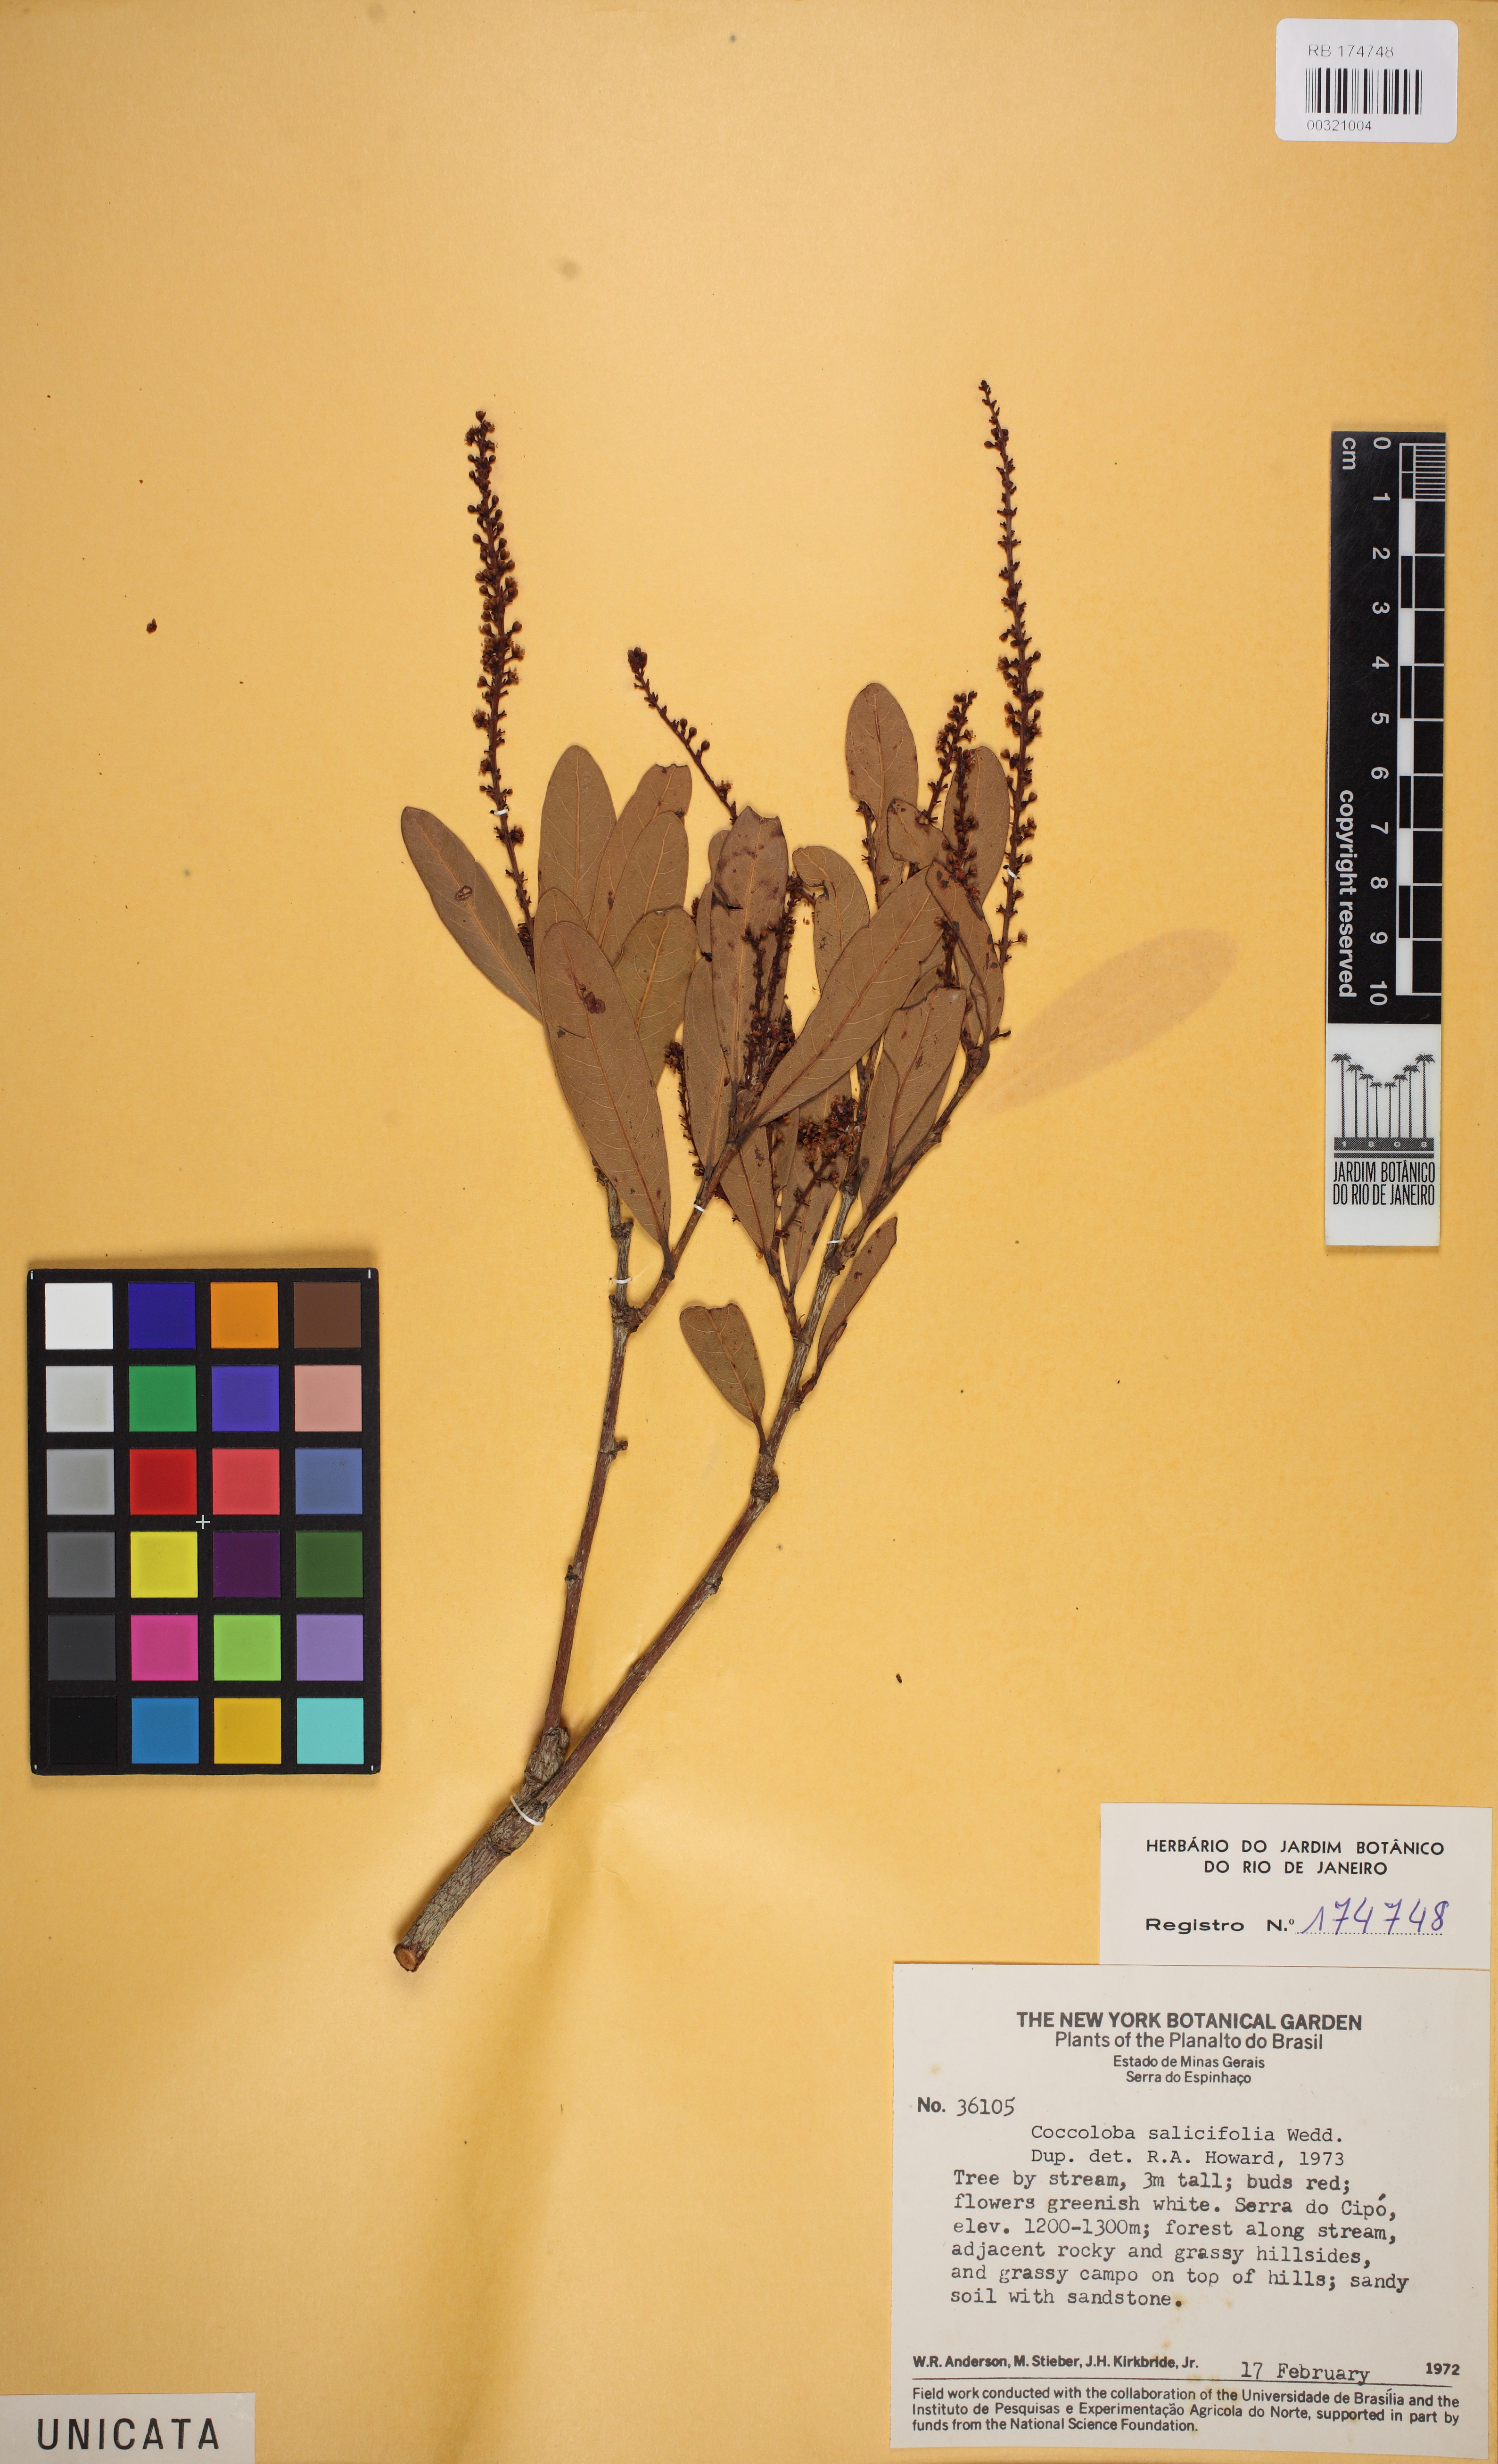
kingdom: Plantae
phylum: Tracheophyta
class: Magnoliopsida
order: Caryophyllales
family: Polygonaceae
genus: Coccoloba
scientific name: Coccoloba salicifolia
